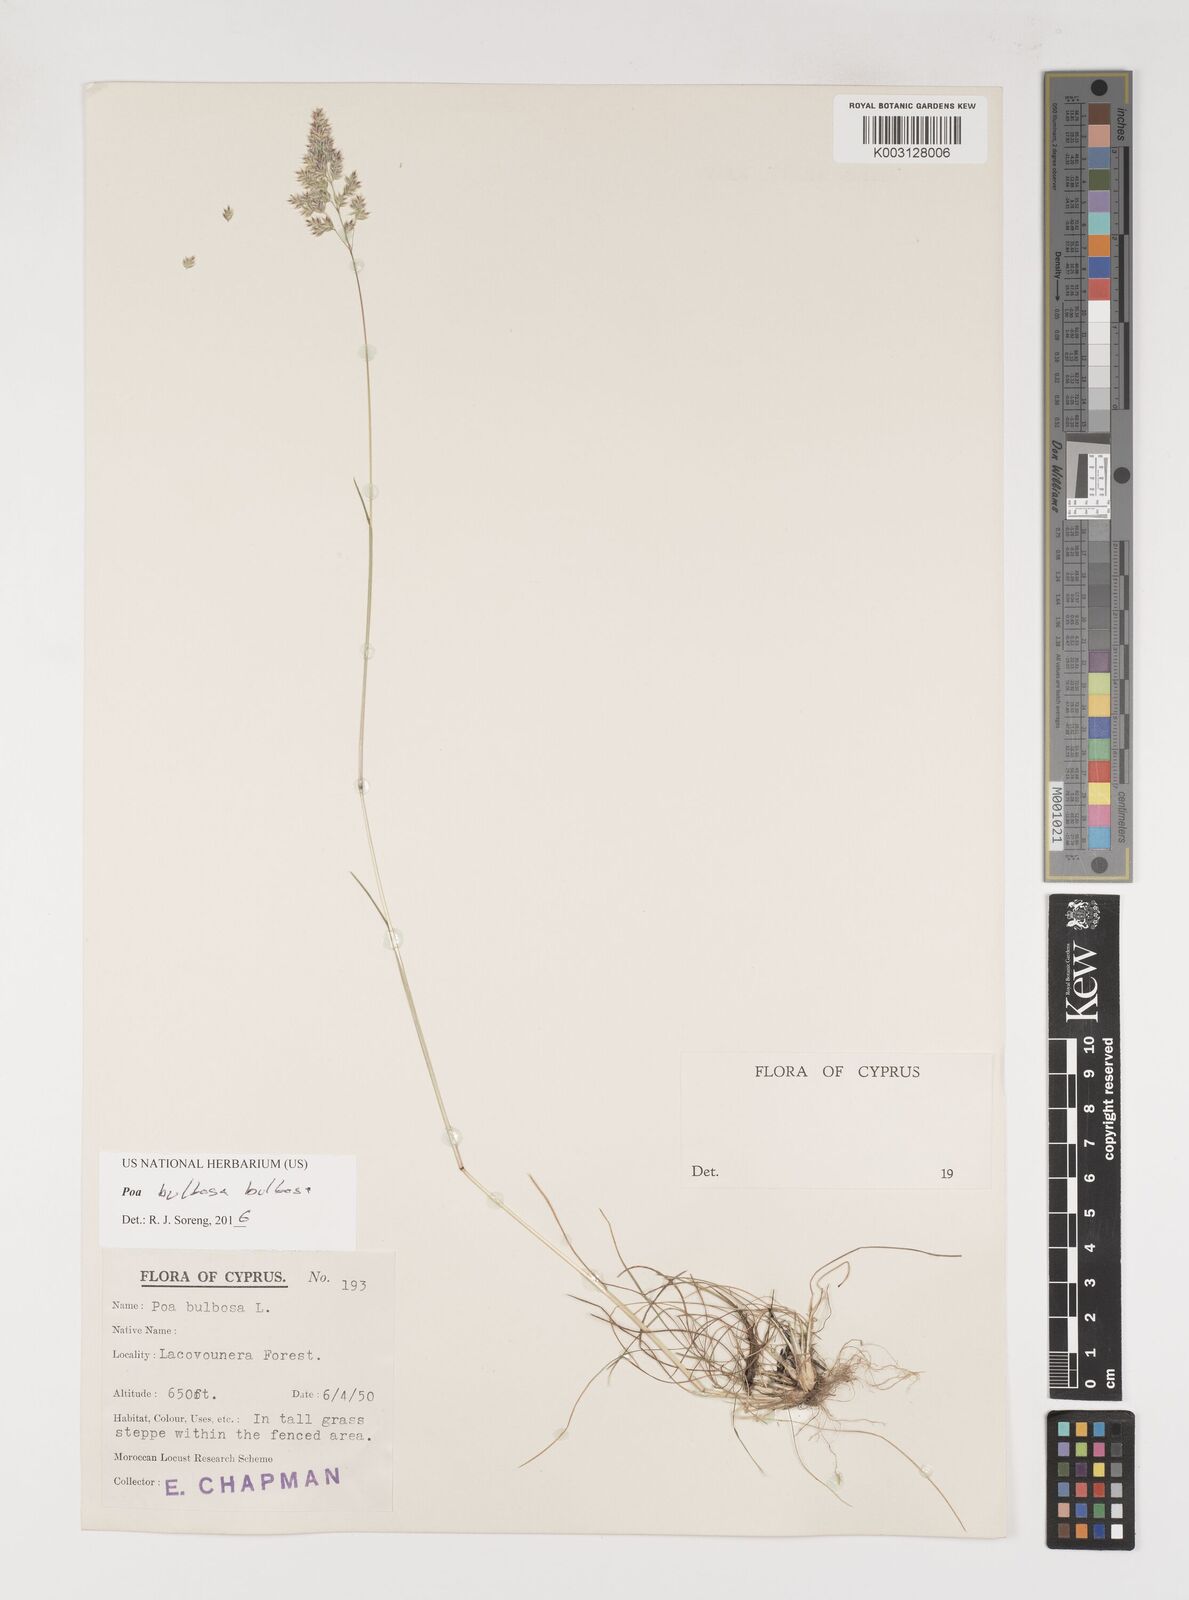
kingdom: Plantae
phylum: Tracheophyta
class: Liliopsida
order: Poales
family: Poaceae
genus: Poa
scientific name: Poa bulbosa
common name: Bulbous bluegrass
